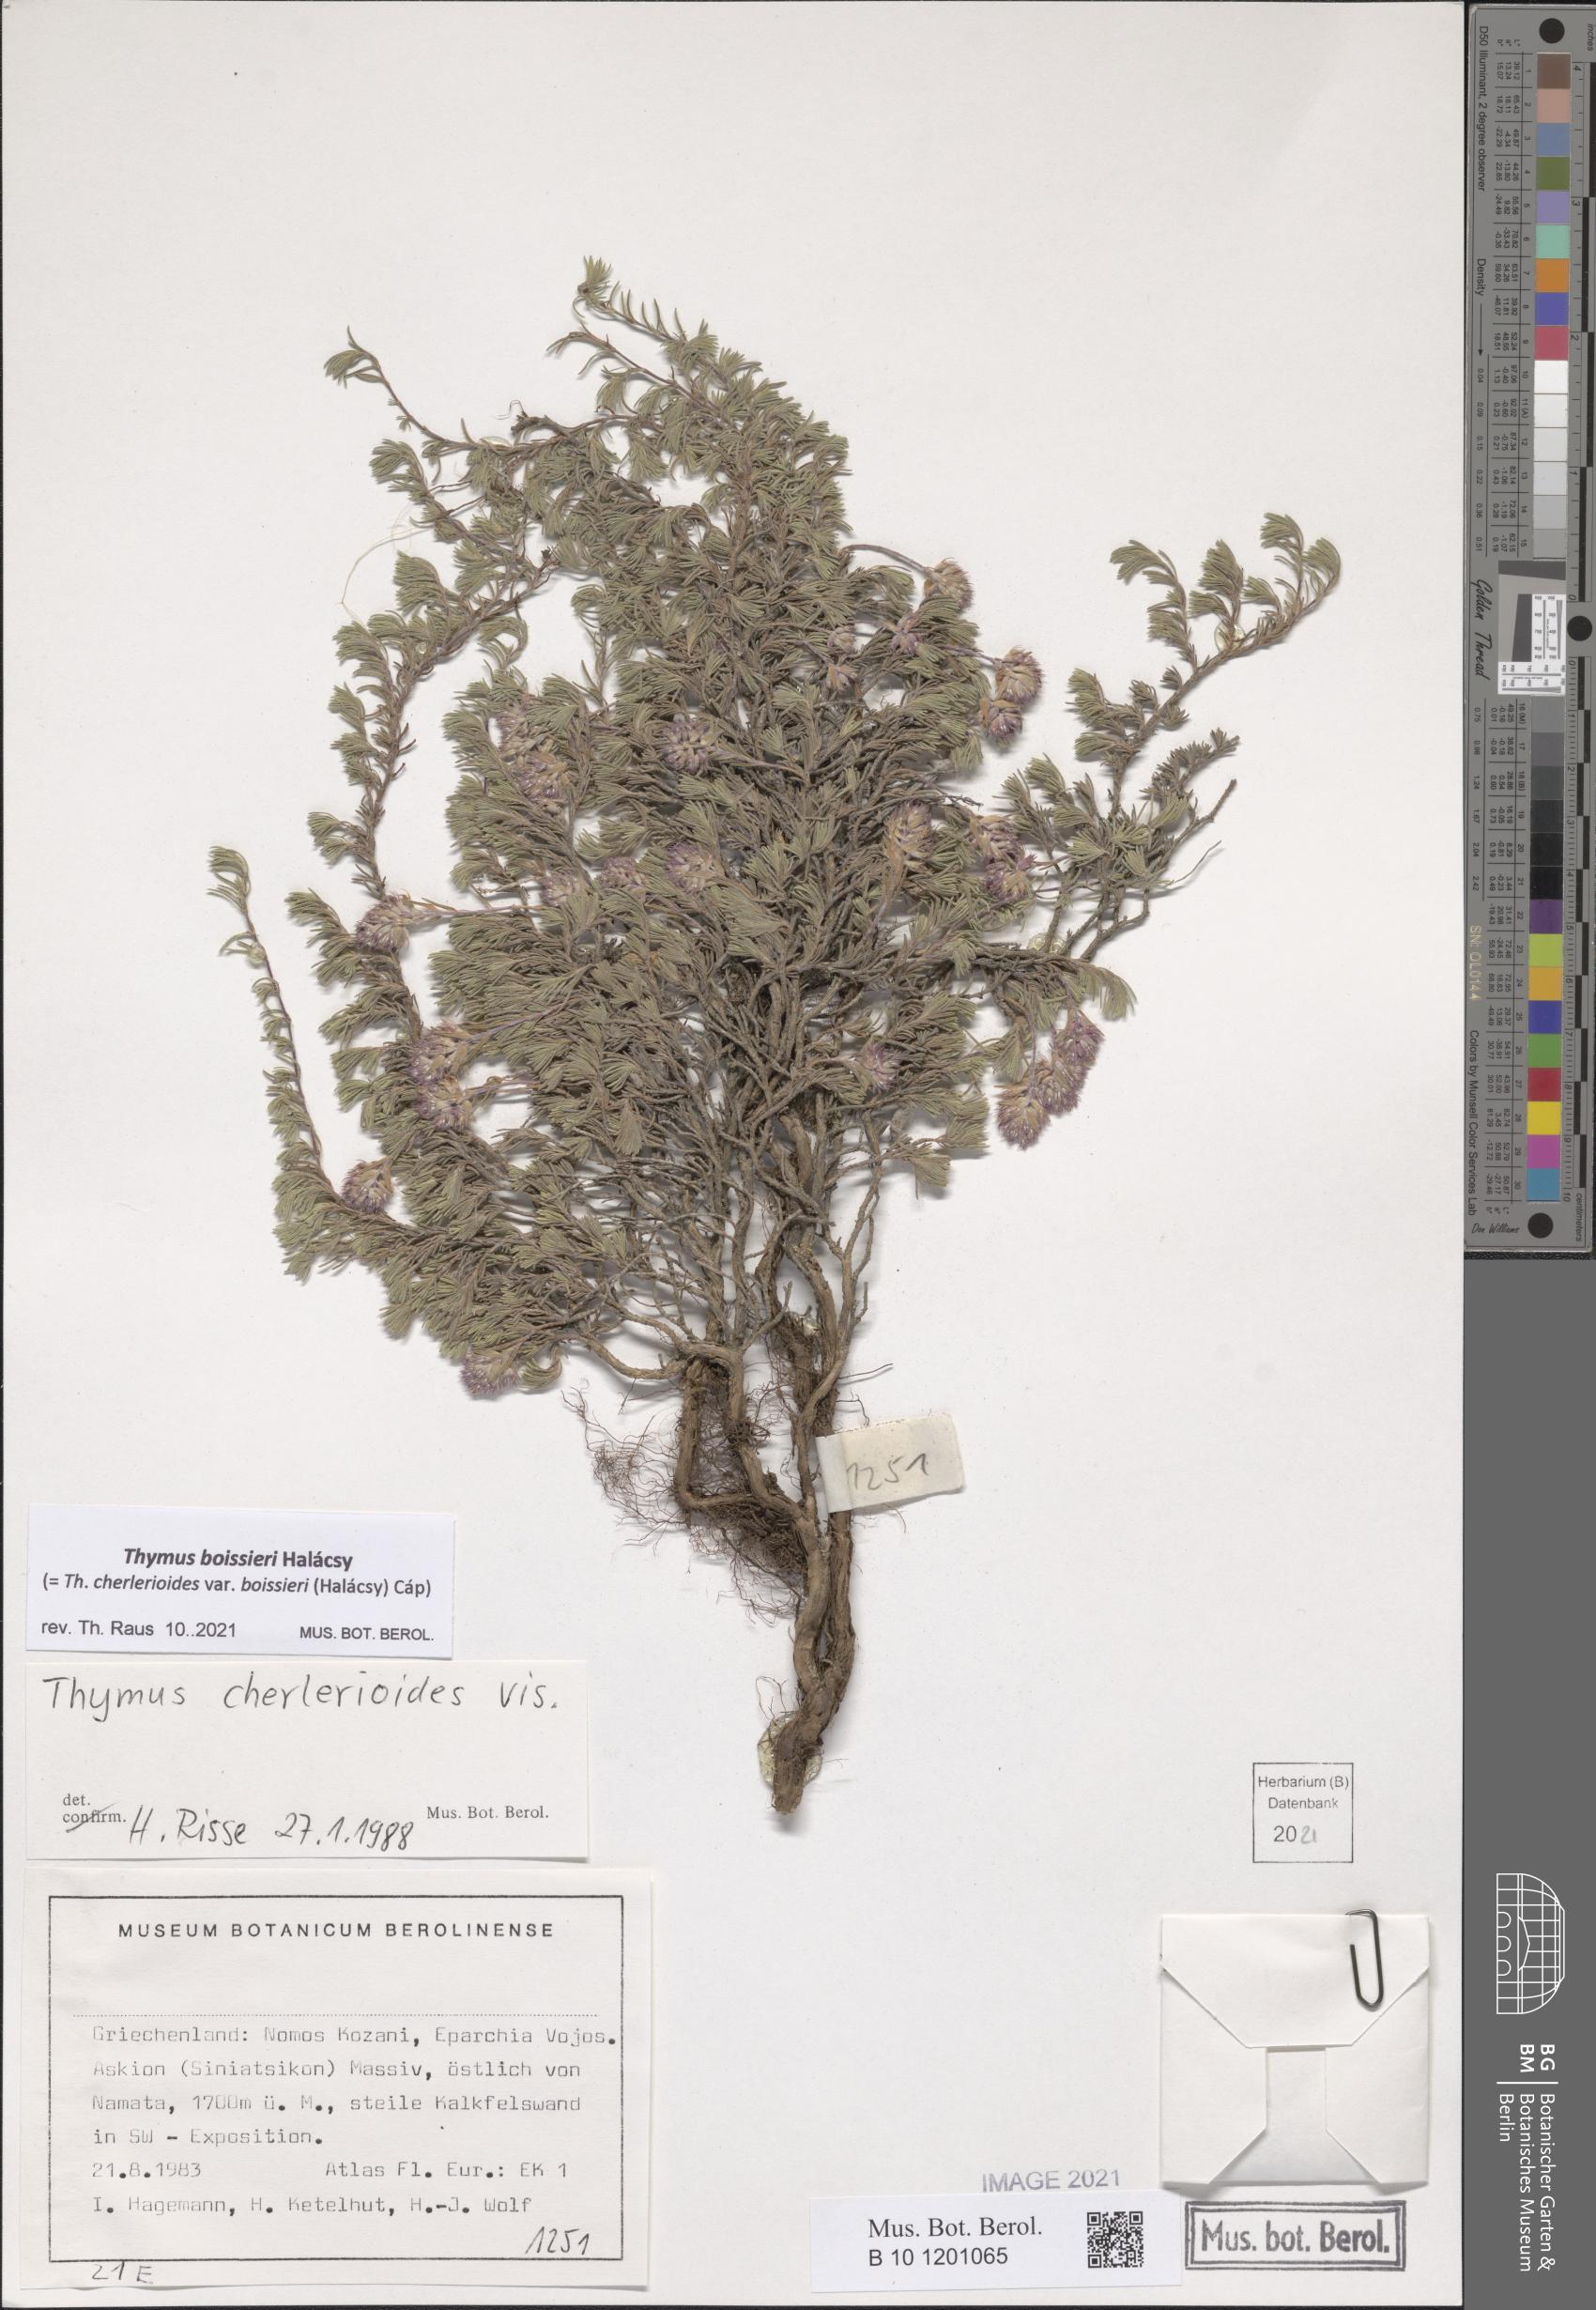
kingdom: Plantae
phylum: Tracheophyta
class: Magnoliopsida
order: Lamiales
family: Lamiaceae
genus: Thymus
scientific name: Thymus boissieri
